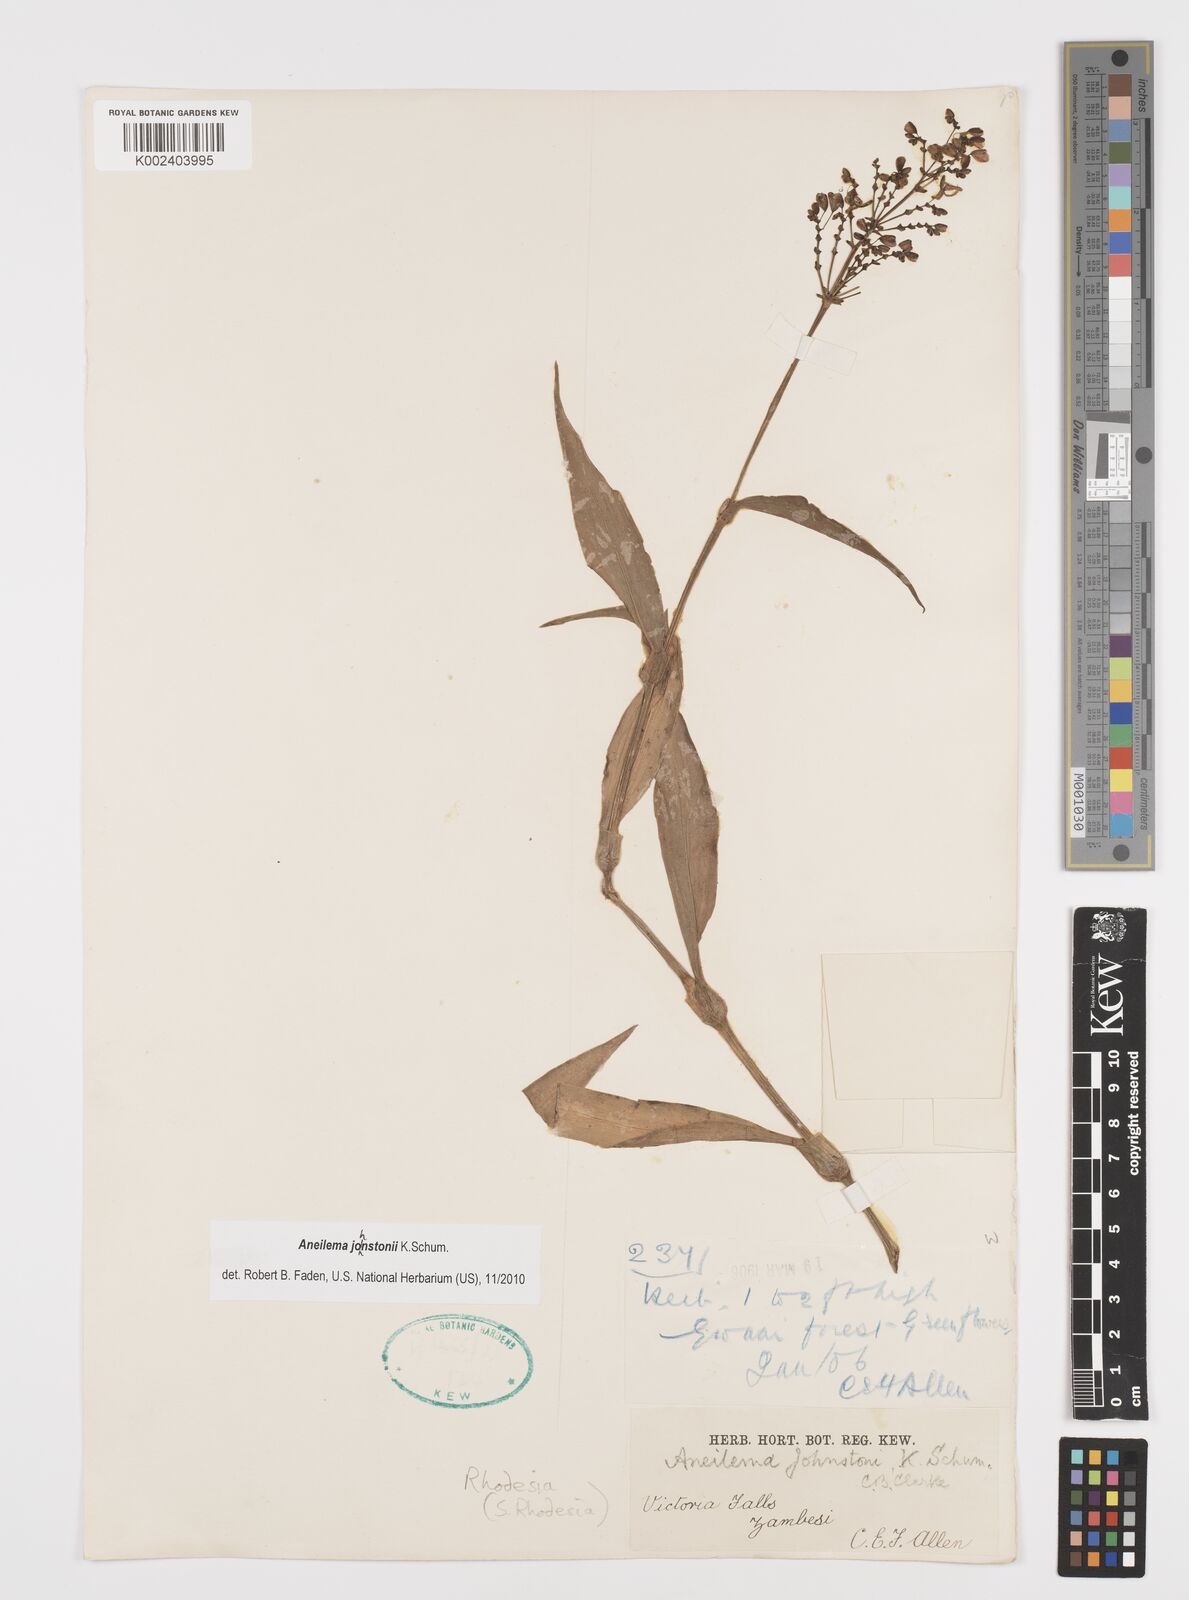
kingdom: Plantae
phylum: Tracheophyta
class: Liliopsida
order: Commelinales
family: Commelinaceae
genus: Aneilema
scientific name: Aneilema johnstonii
